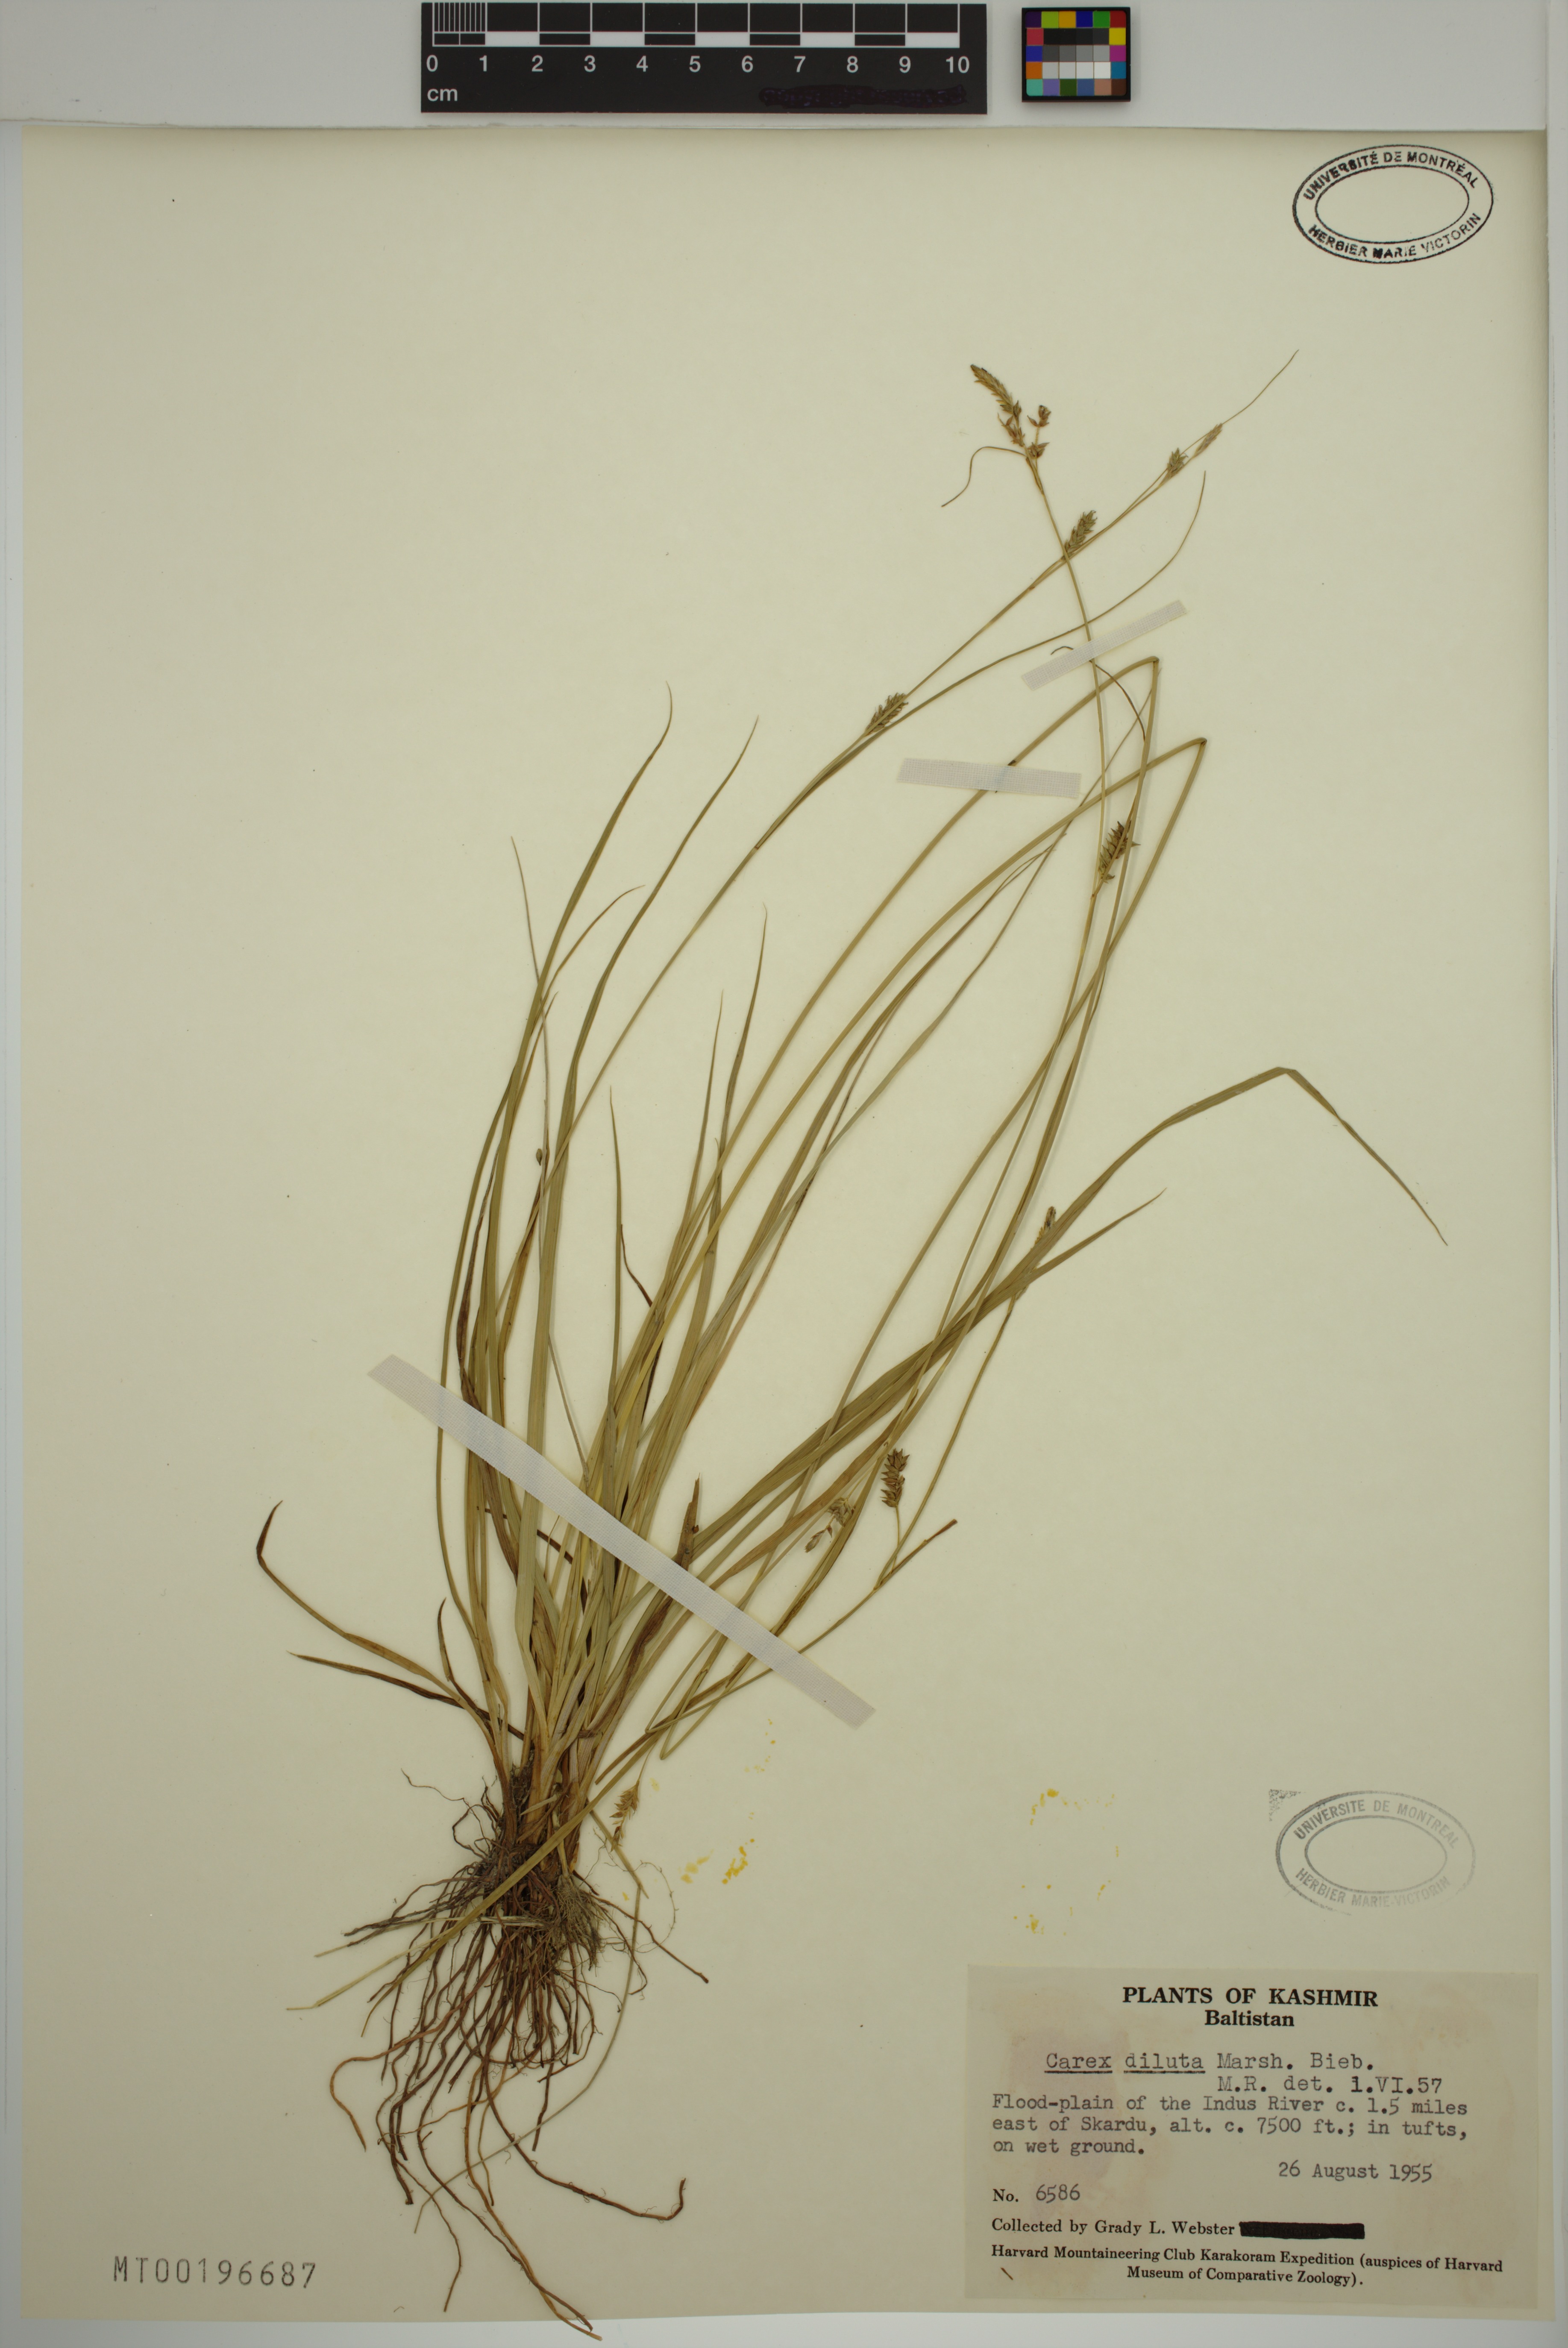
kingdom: Plantae
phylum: Tracheophyta
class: Liliopsida
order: Poales
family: Cyperaceae
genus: Carex
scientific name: Carex diluta
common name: Sedge
